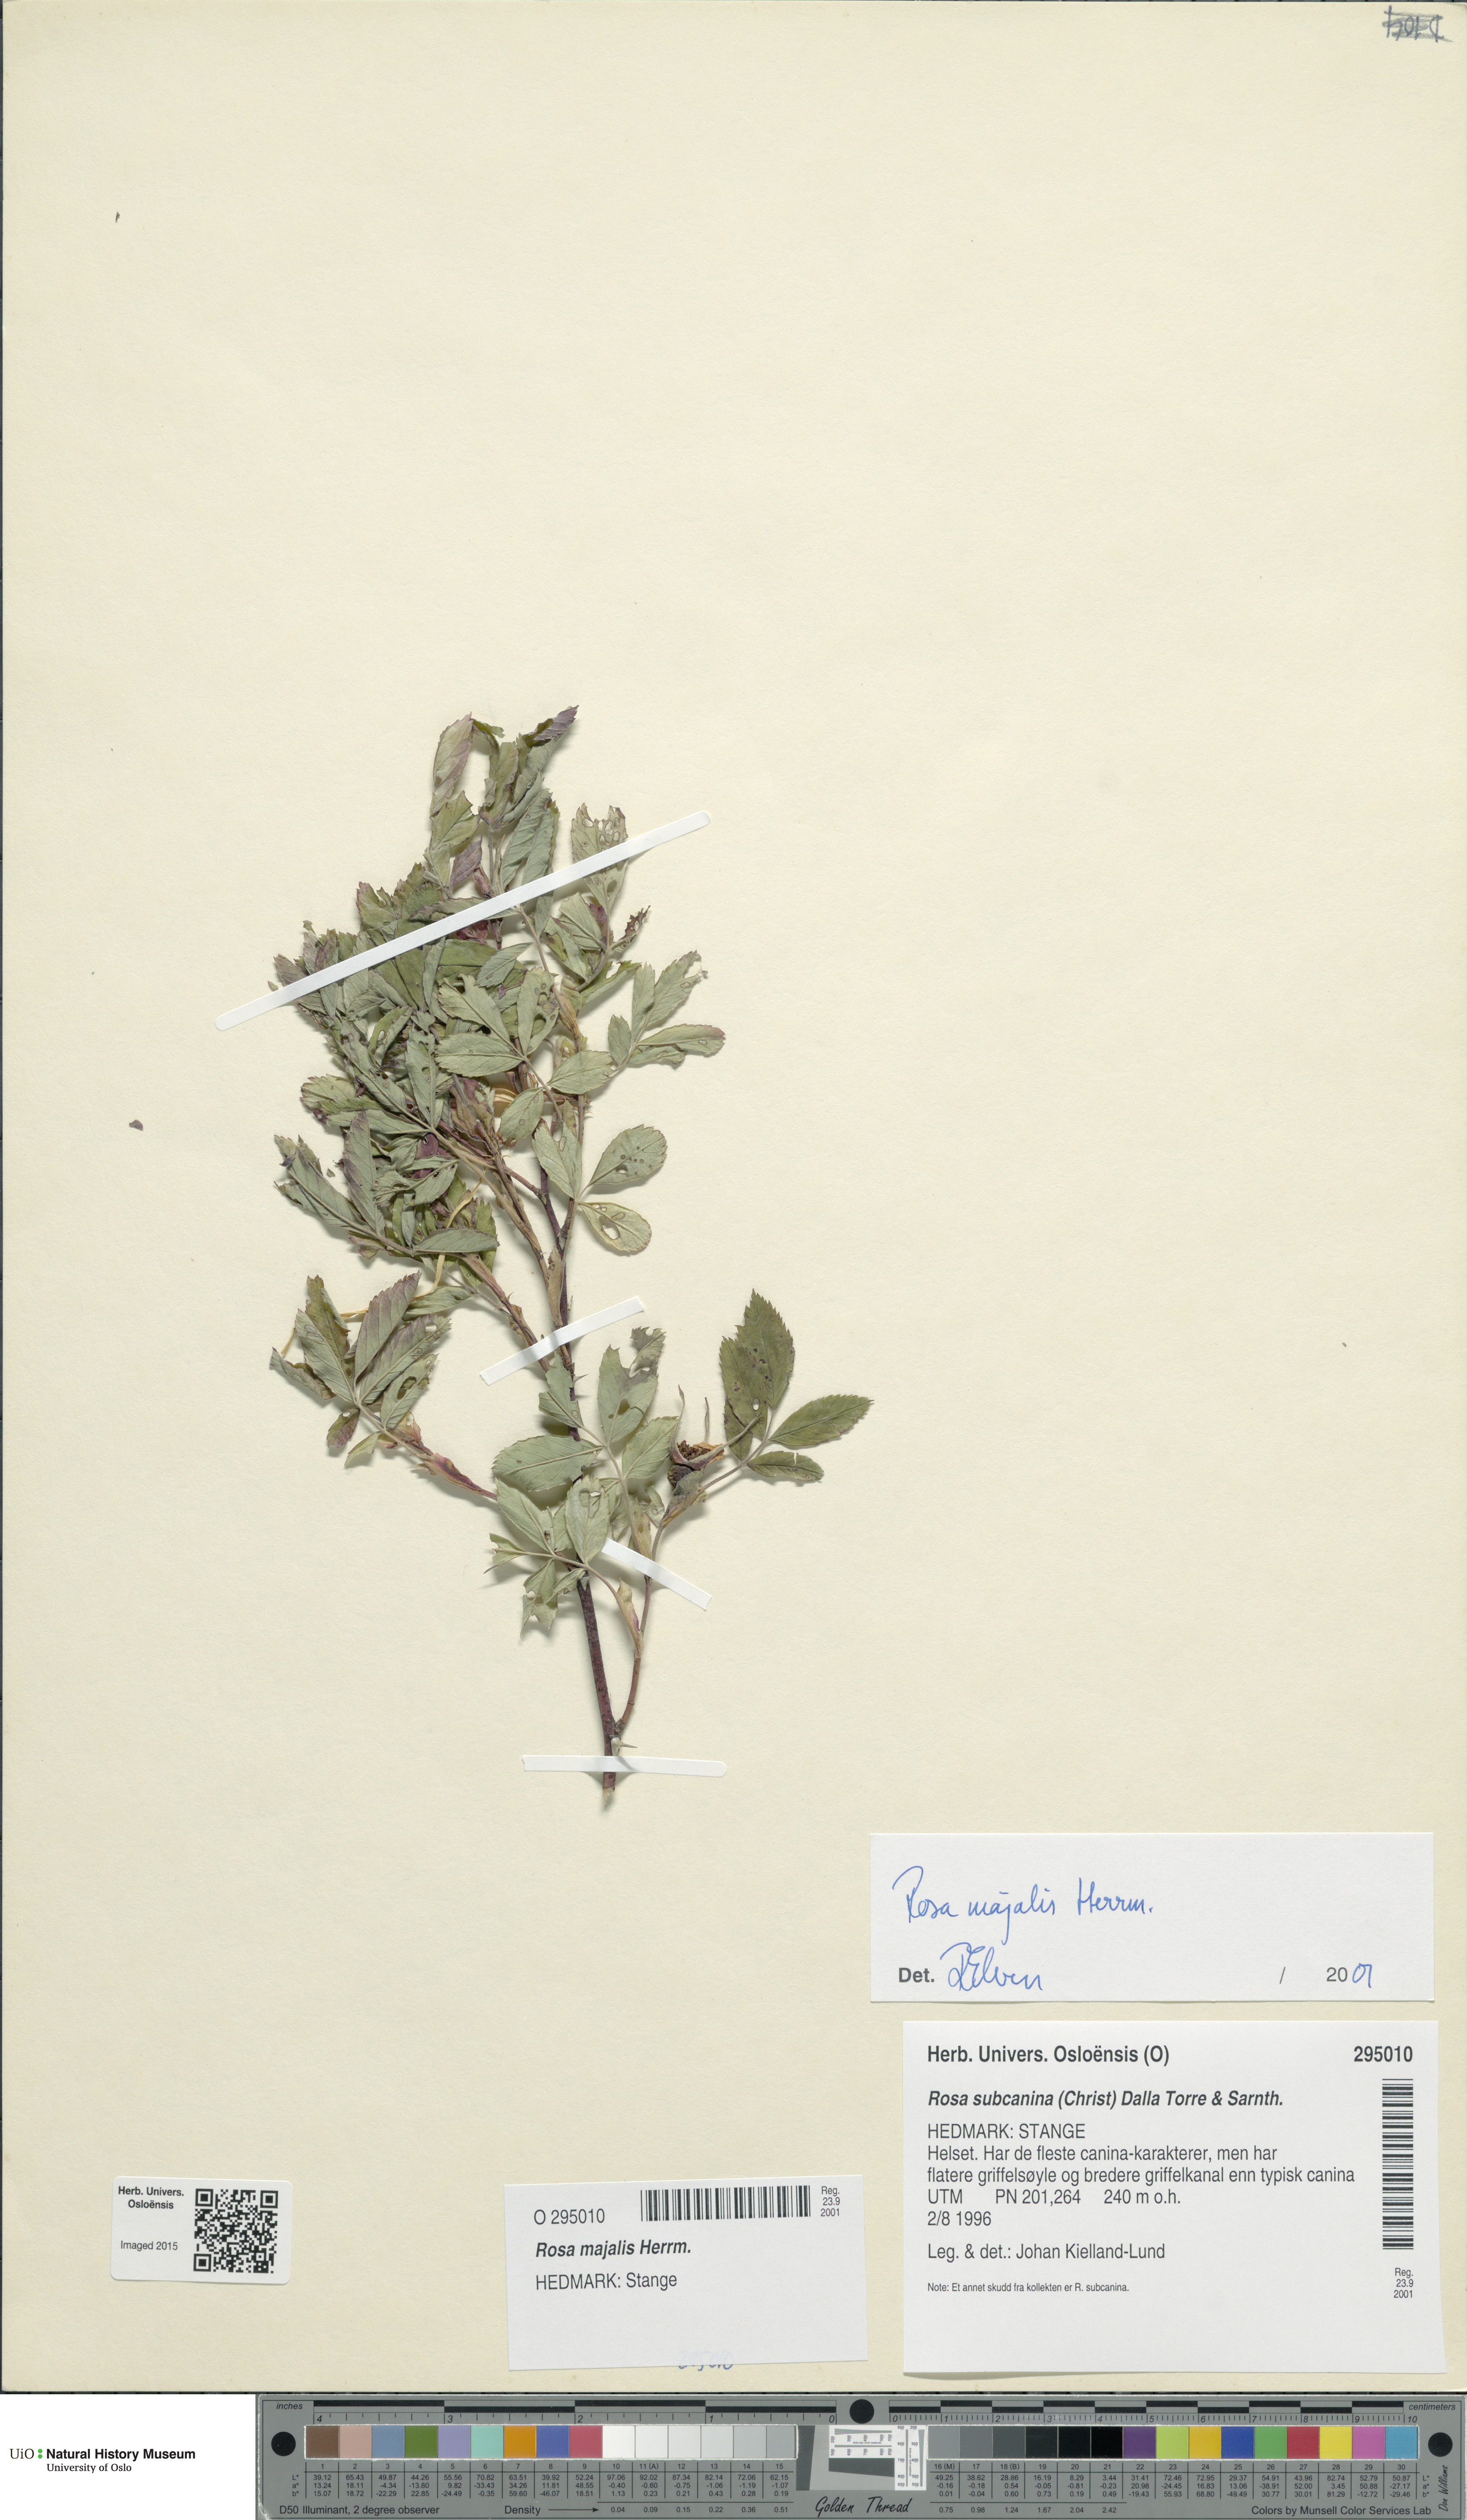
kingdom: Plantae
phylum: Tracheophyta
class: Magnoliopsida
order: Rosales
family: Rosaceae
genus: Rosa
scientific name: Rosa majalis
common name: Cinnamon rose
